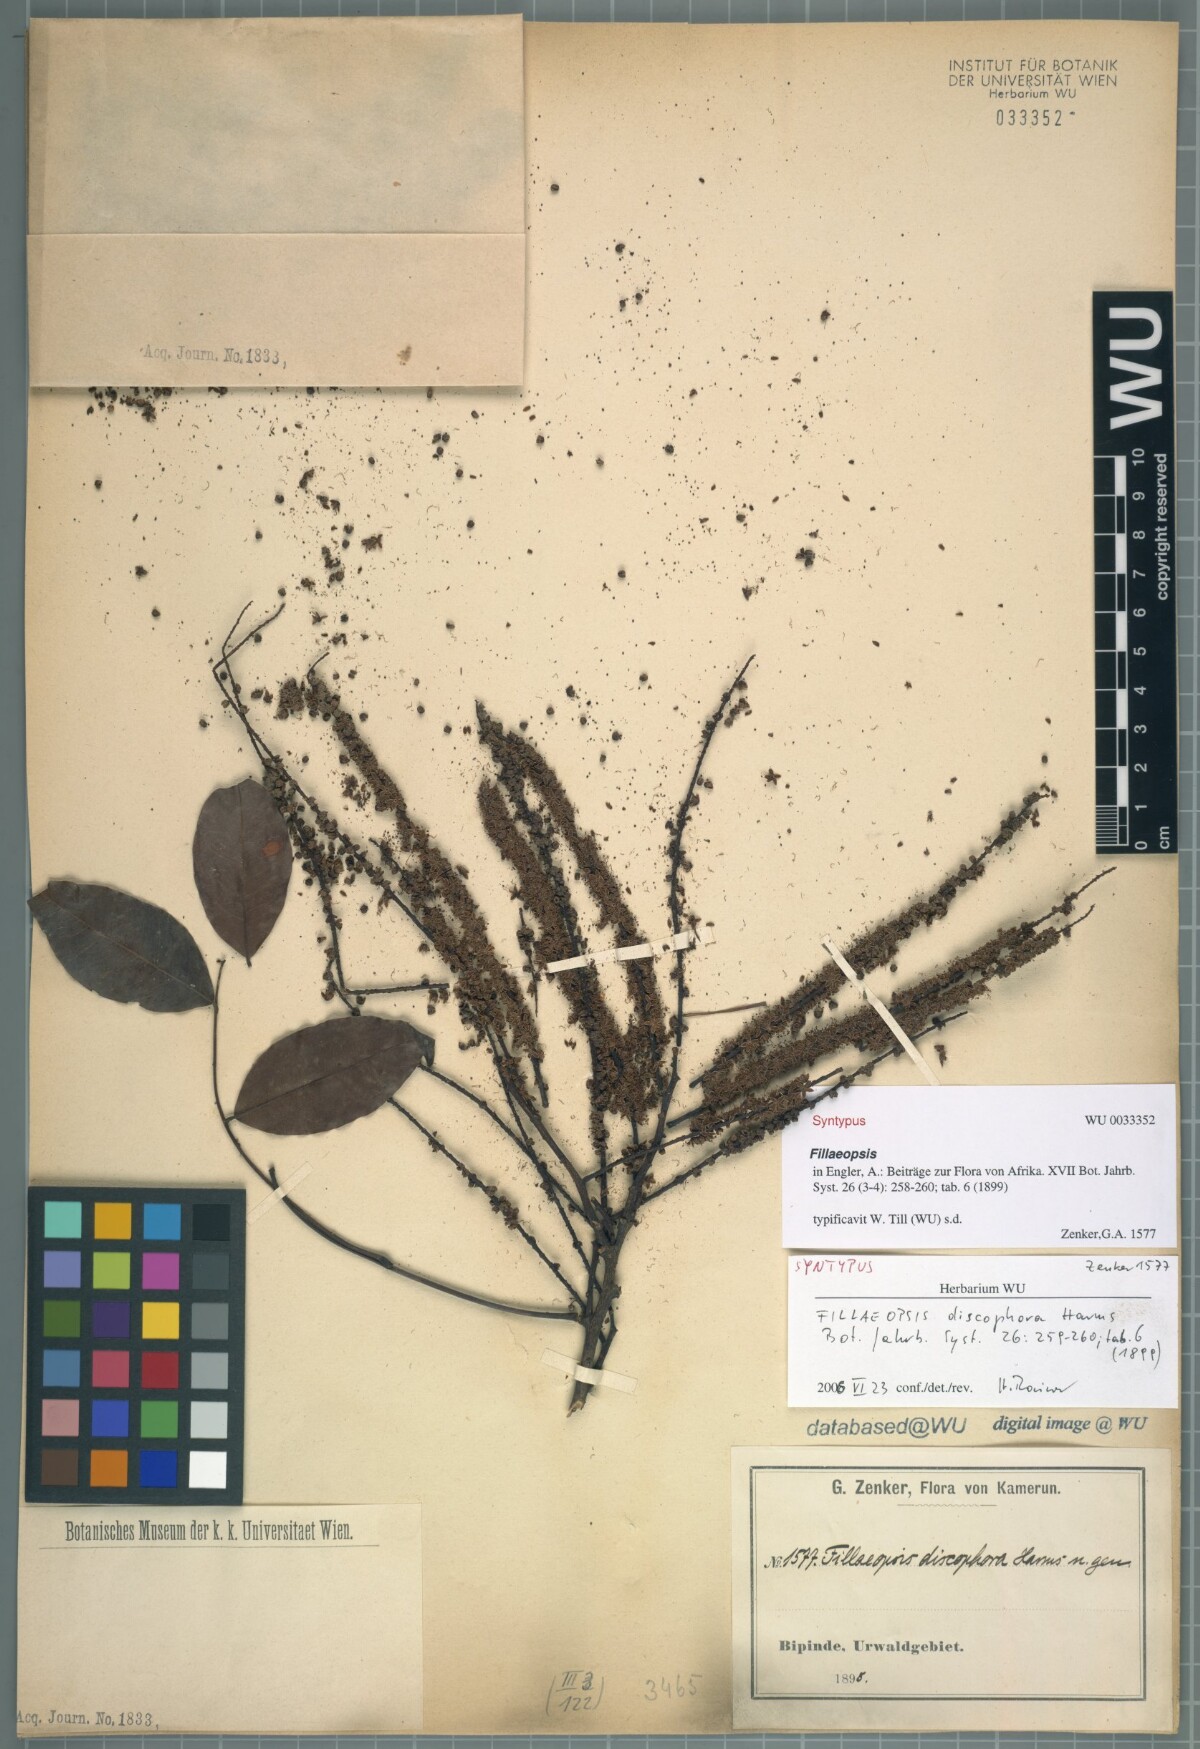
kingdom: Plantae
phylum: Tracheophyta
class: Magnoliopsida
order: Fabales
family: Fabaceae
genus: Fillaeopsis
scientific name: Fillaeopsis discophora
